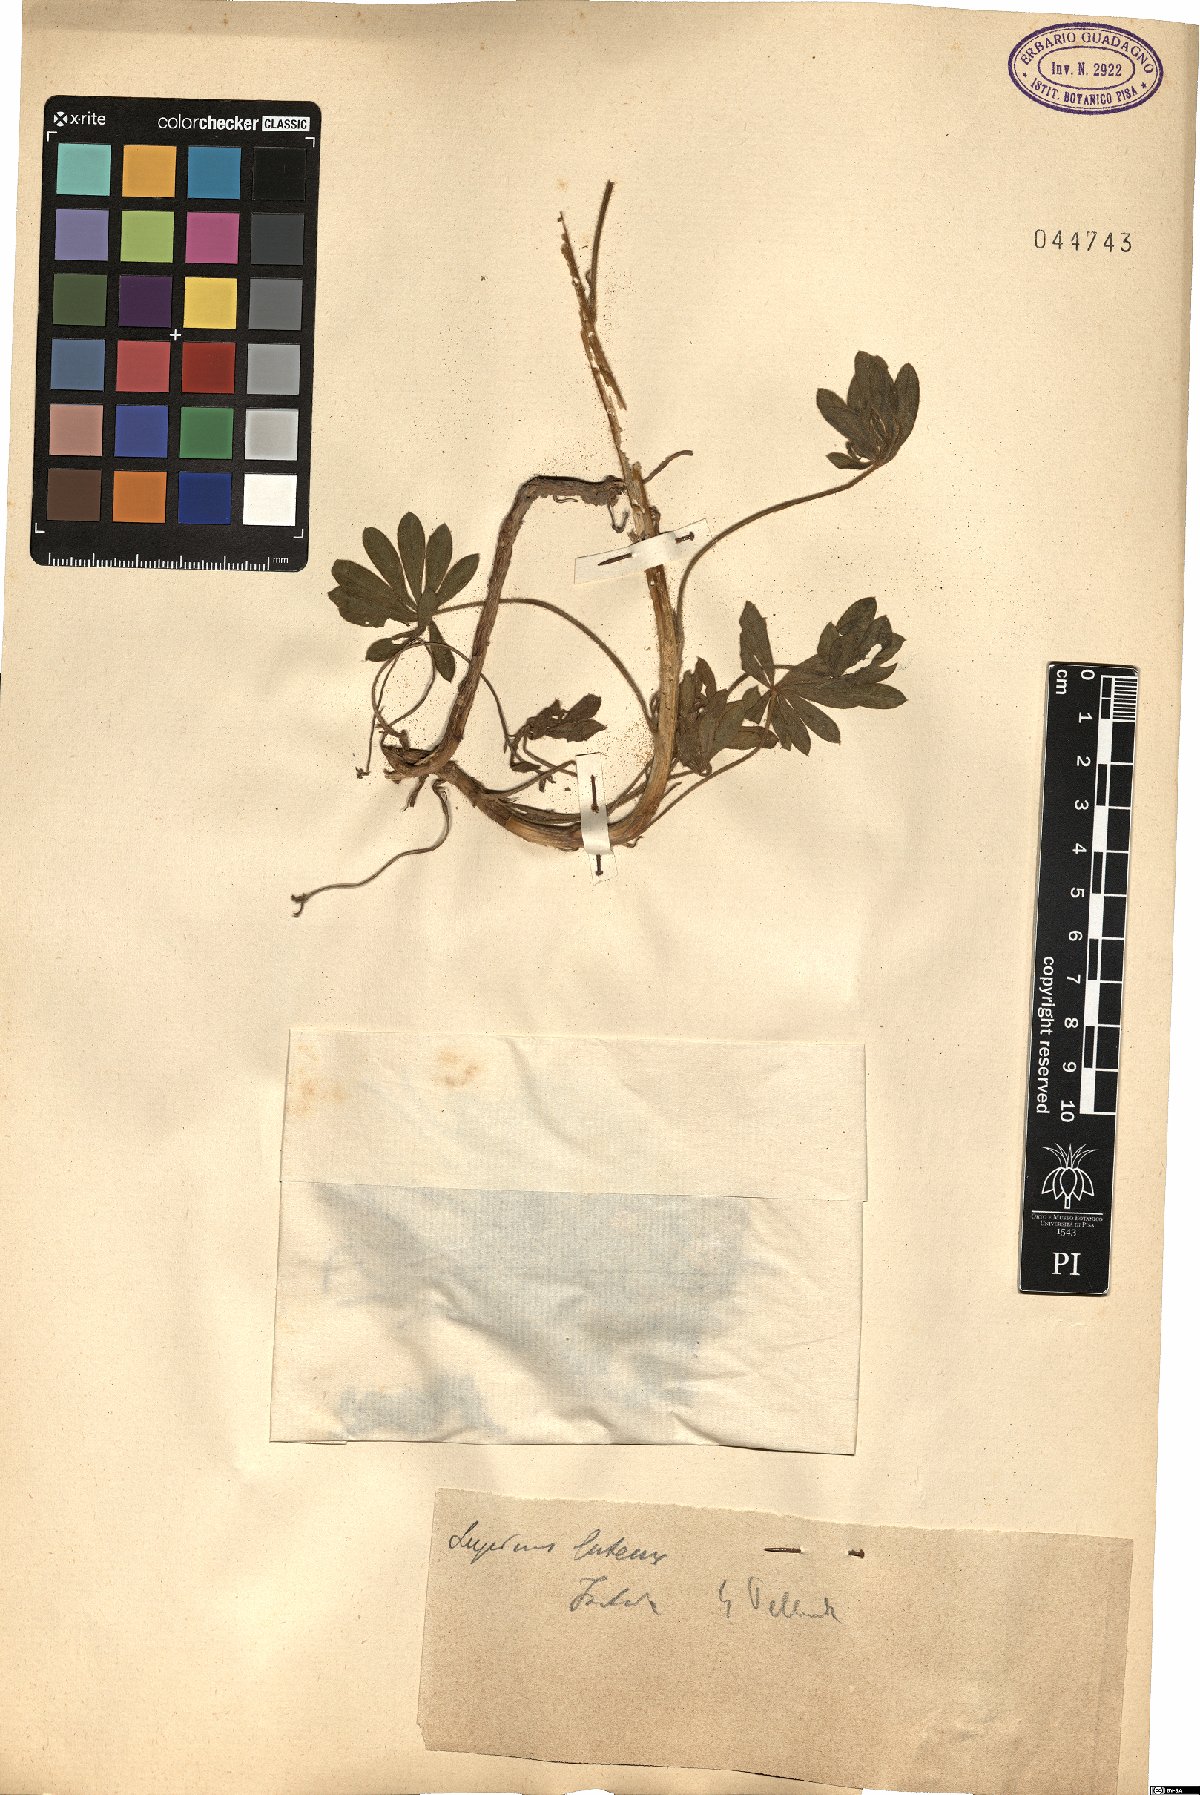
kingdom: Plantae
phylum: Tracheophyta
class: Magnoliopsida
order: Fabales
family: Fabaceae
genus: Lupinus
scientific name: Lupinus luteus
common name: European yellow lupine
